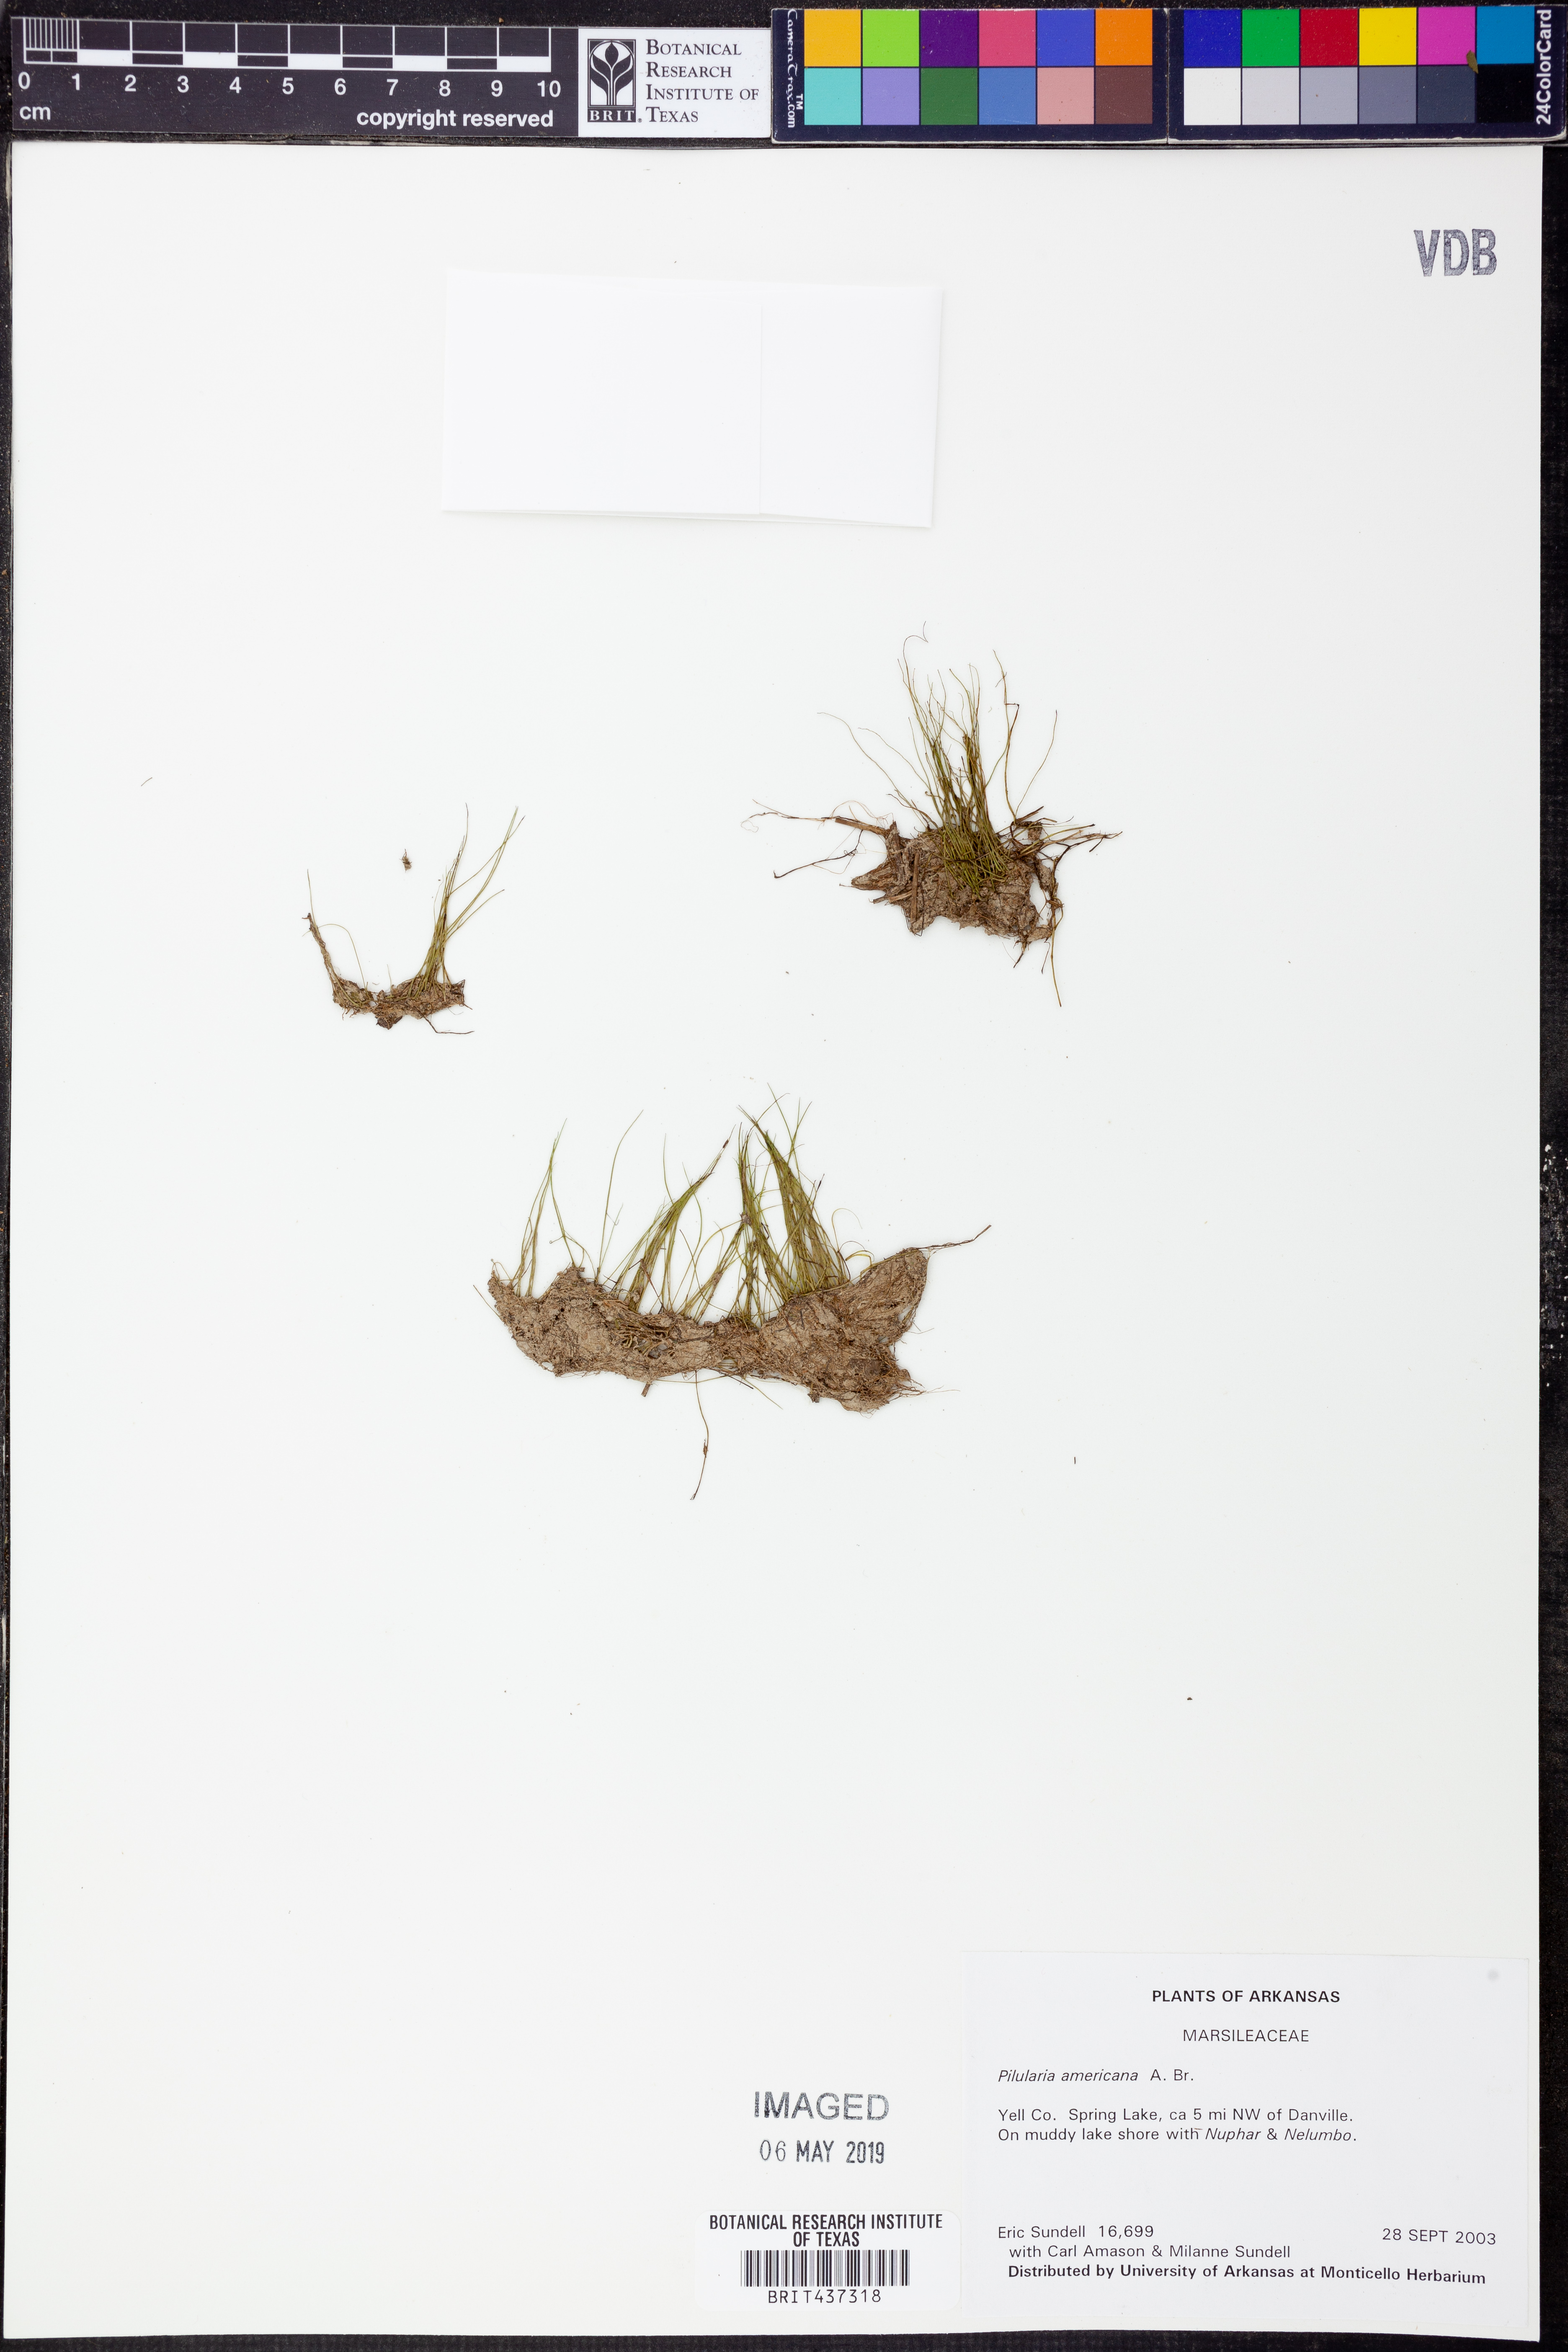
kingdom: Plantae
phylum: Tracheophyta
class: Polypodiopsida
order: Salviniales
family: Marsileaceae
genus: Pilularia
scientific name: Pilularia americana
